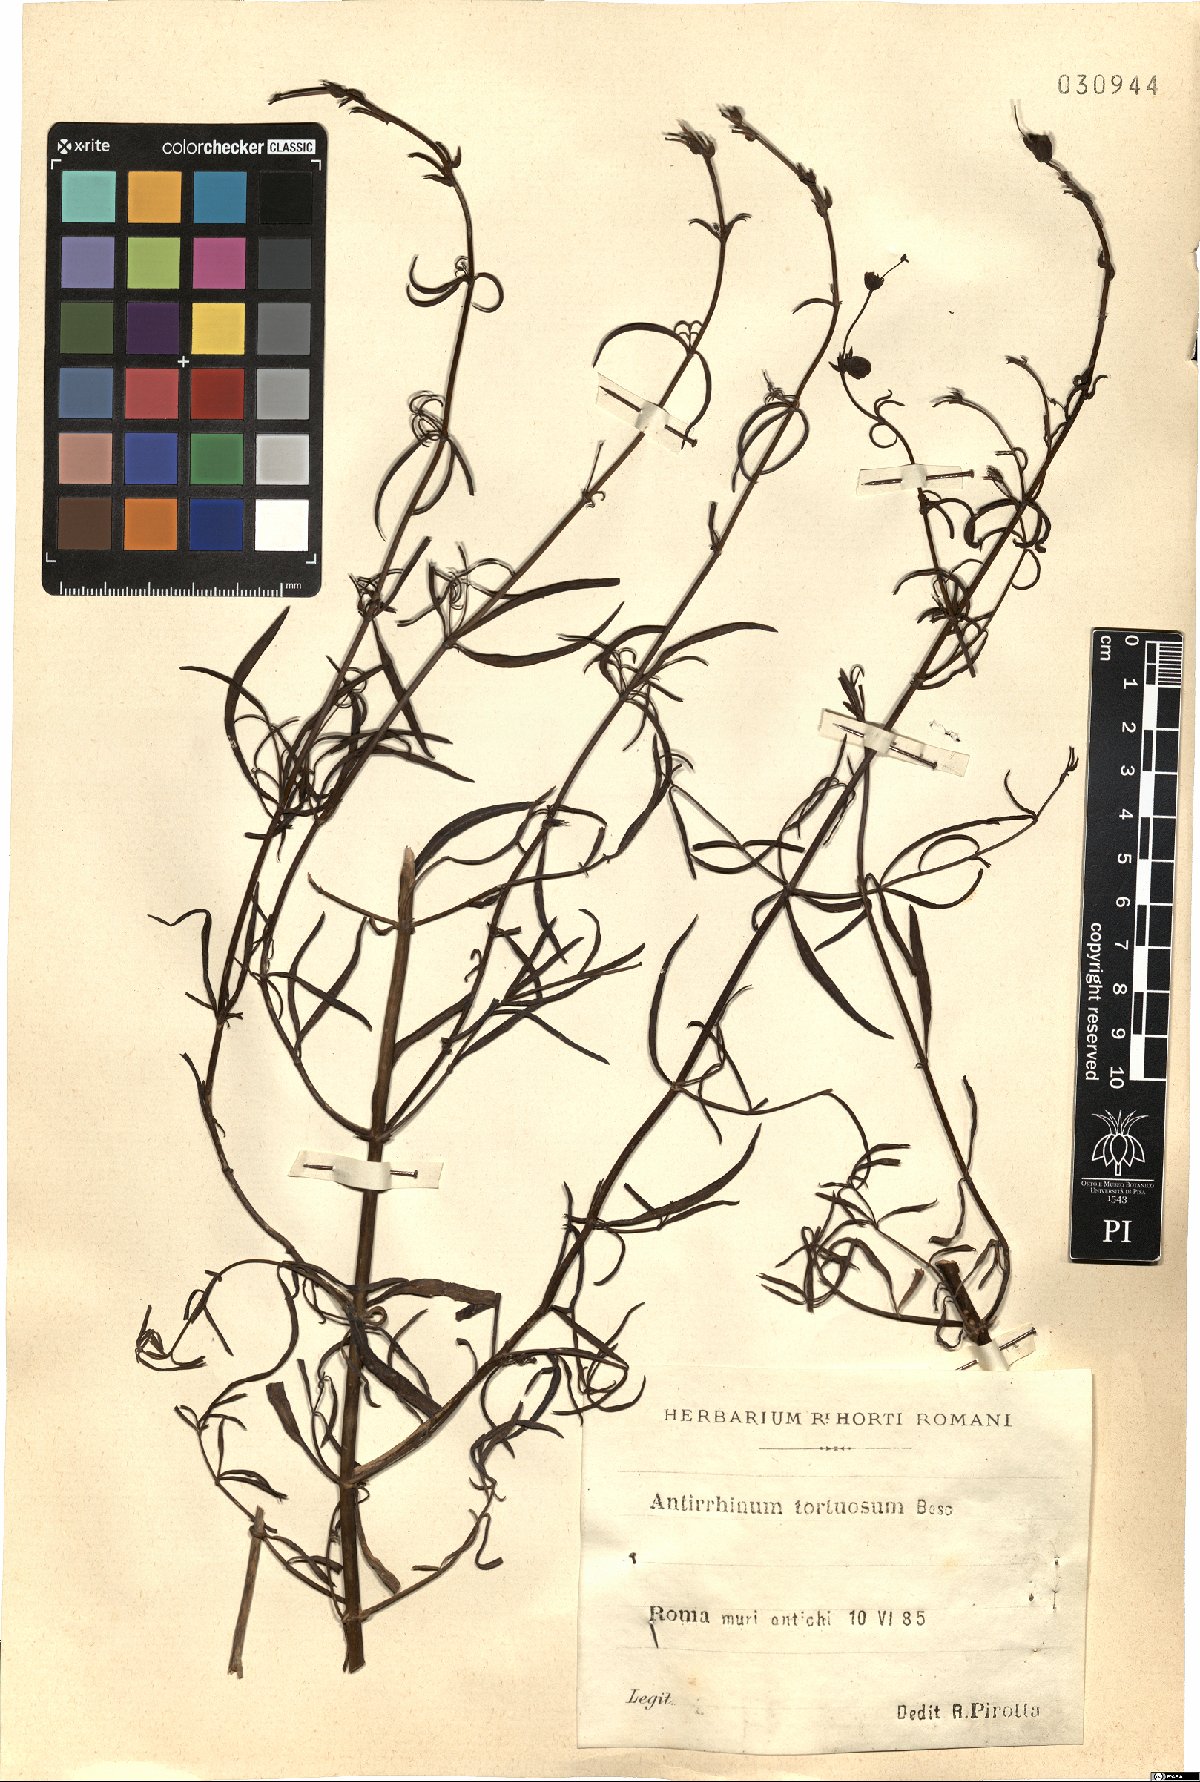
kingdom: Plantae
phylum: Tracheophyta
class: Magnoliopsida
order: Lamiales
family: Plantaginaceae
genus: Antirrhinum
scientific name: Antirrhinum tortuosum
